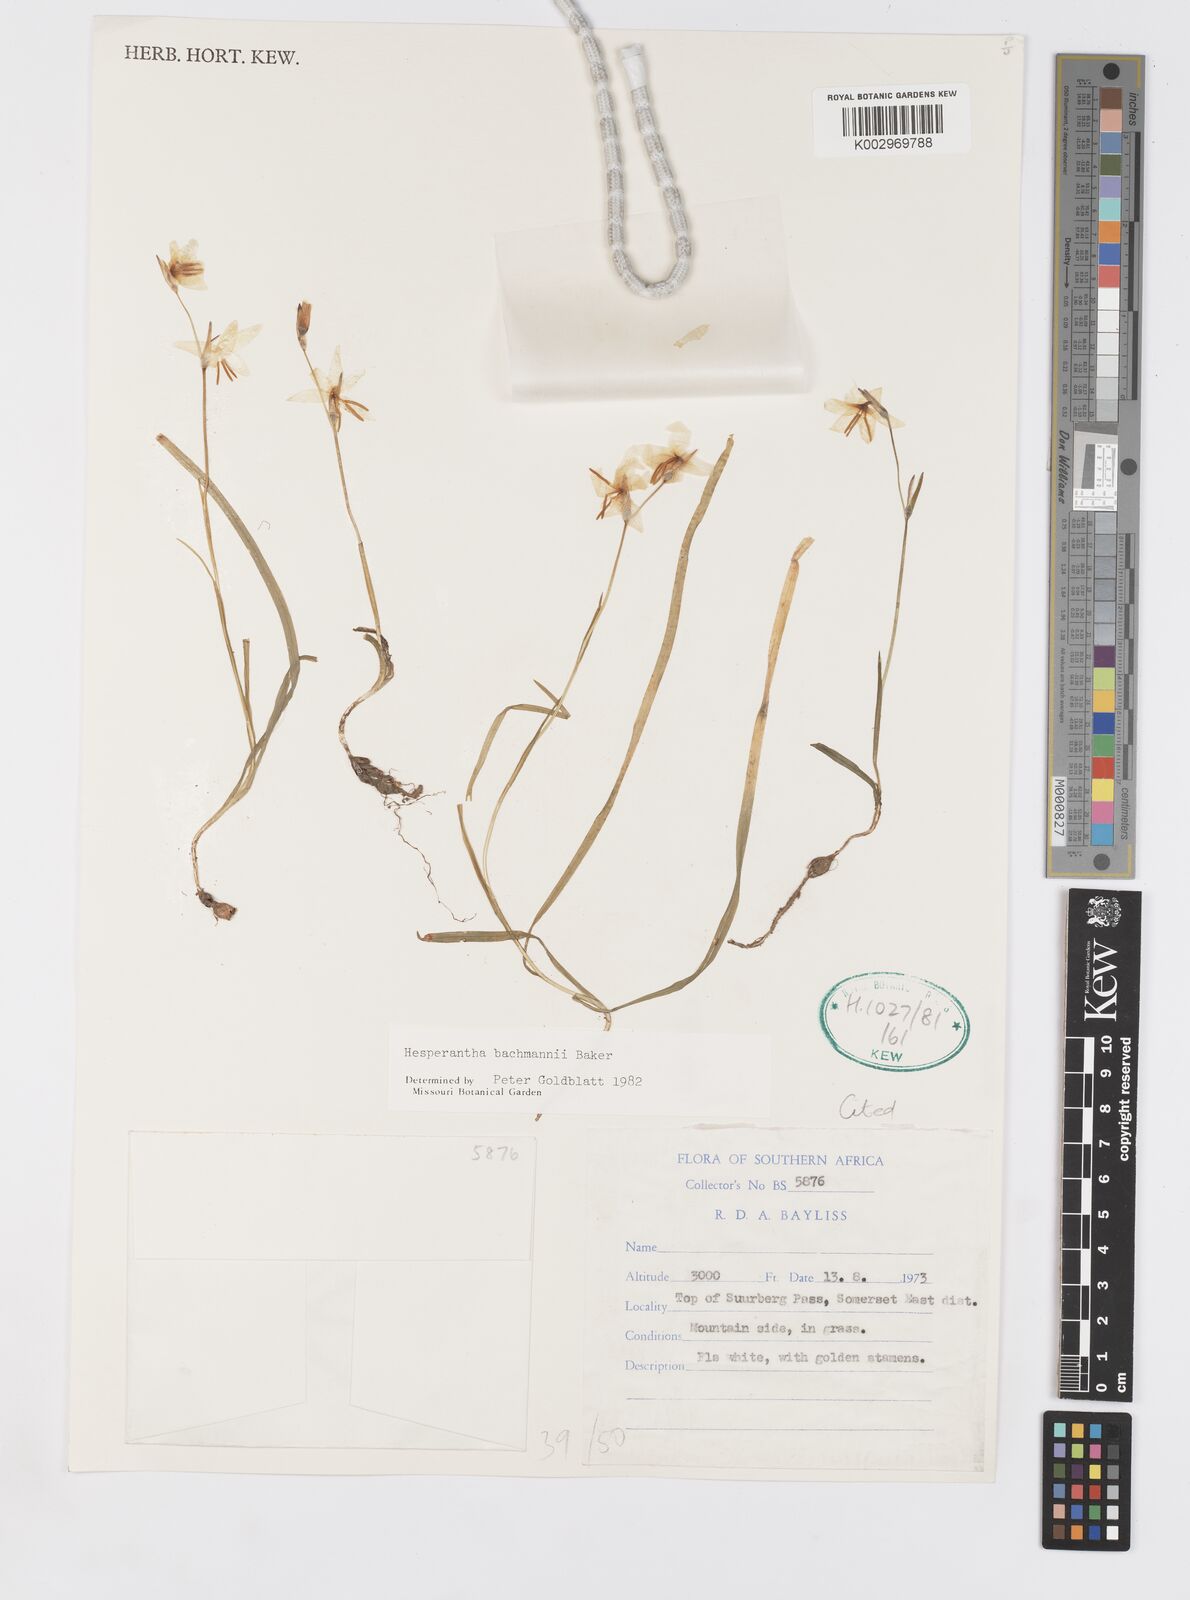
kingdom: Plantae
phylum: Tracheophyta
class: Liliopsida
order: Asparagales
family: Iridaceae
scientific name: Iridaceae
